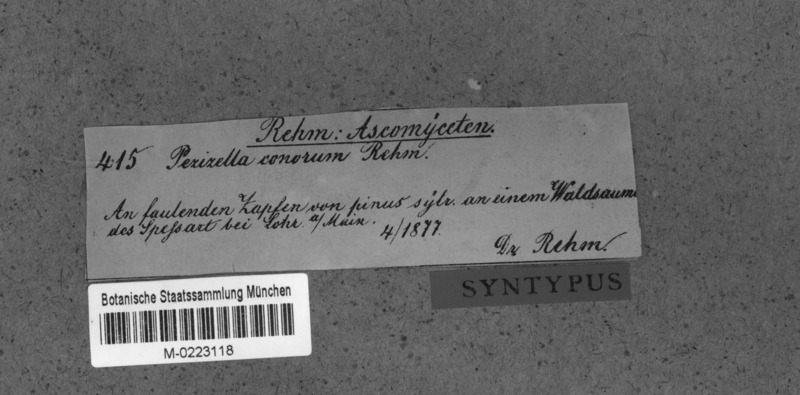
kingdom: Fungi
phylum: Ascomycota
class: Leotiomycetes
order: Helotiales
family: Pezizellaceae
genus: Calycina
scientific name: Calycina conorum
